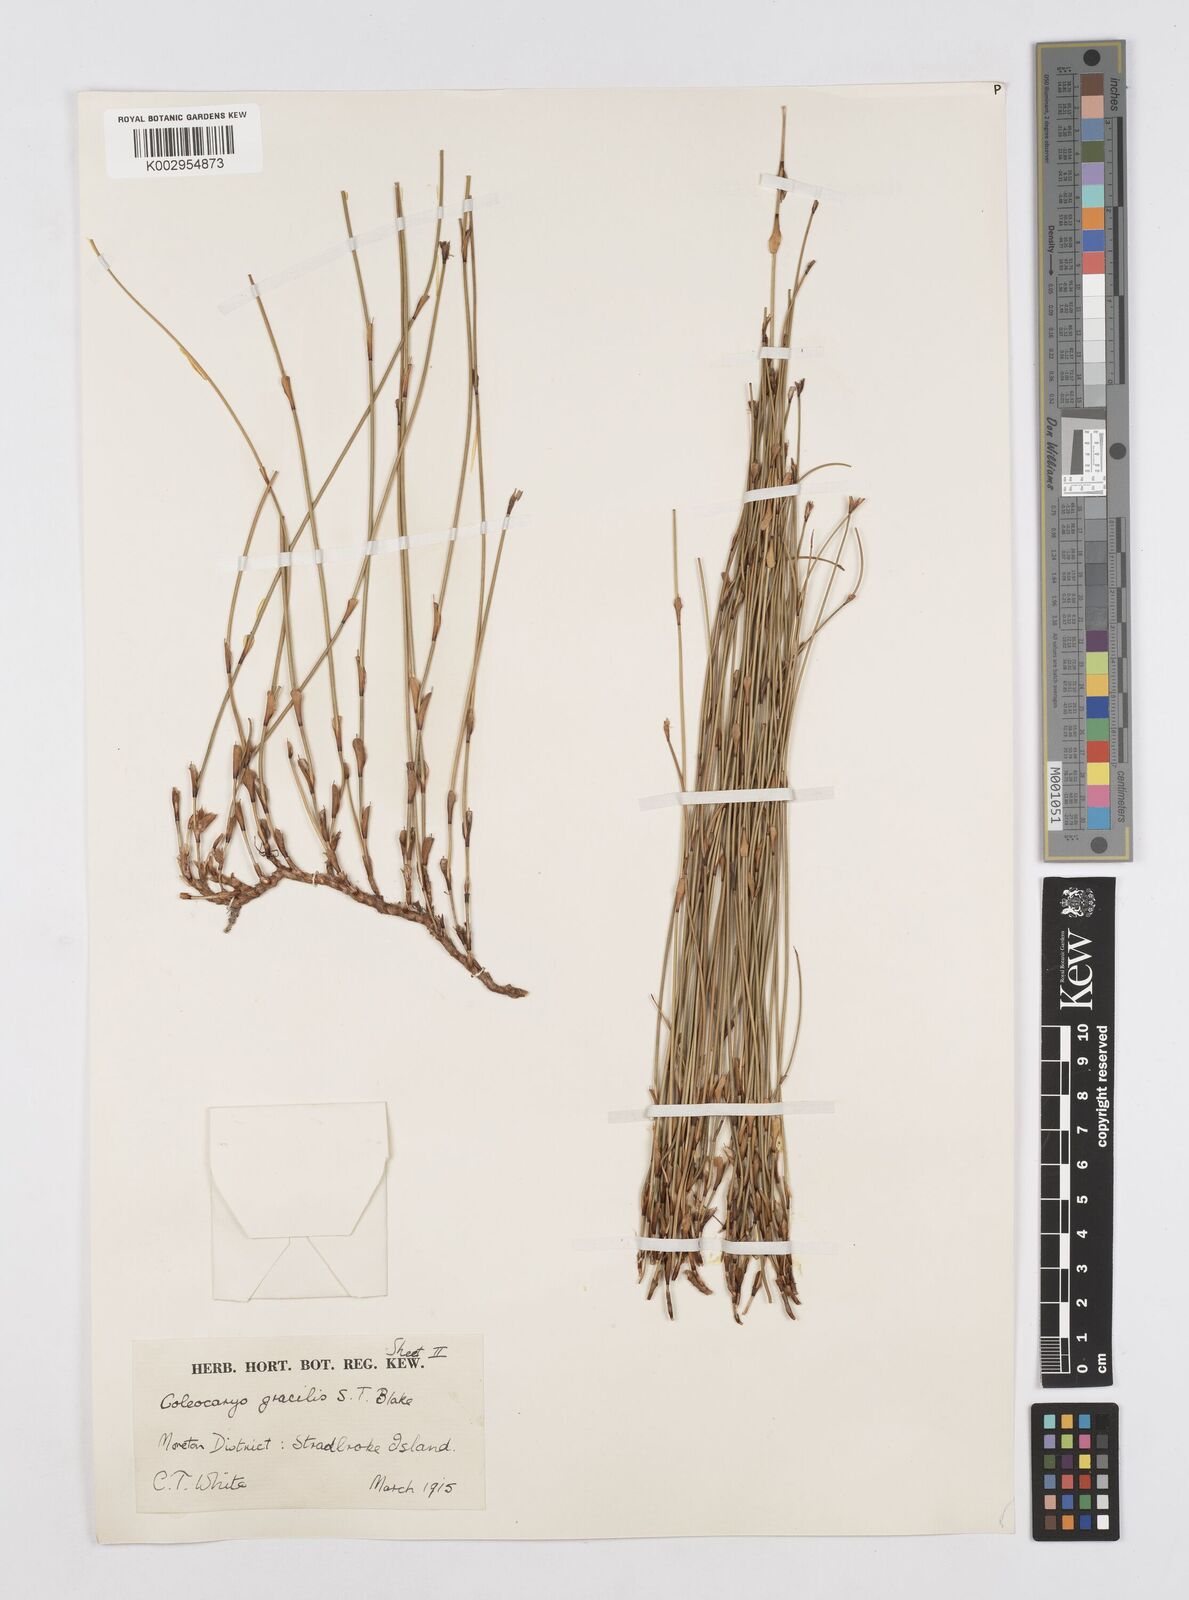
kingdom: Plantae
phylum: Tracheophyta
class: Liliopsida
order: Poales
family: Restionaceae
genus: Coleocarya
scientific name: Coleocarya gracilis
